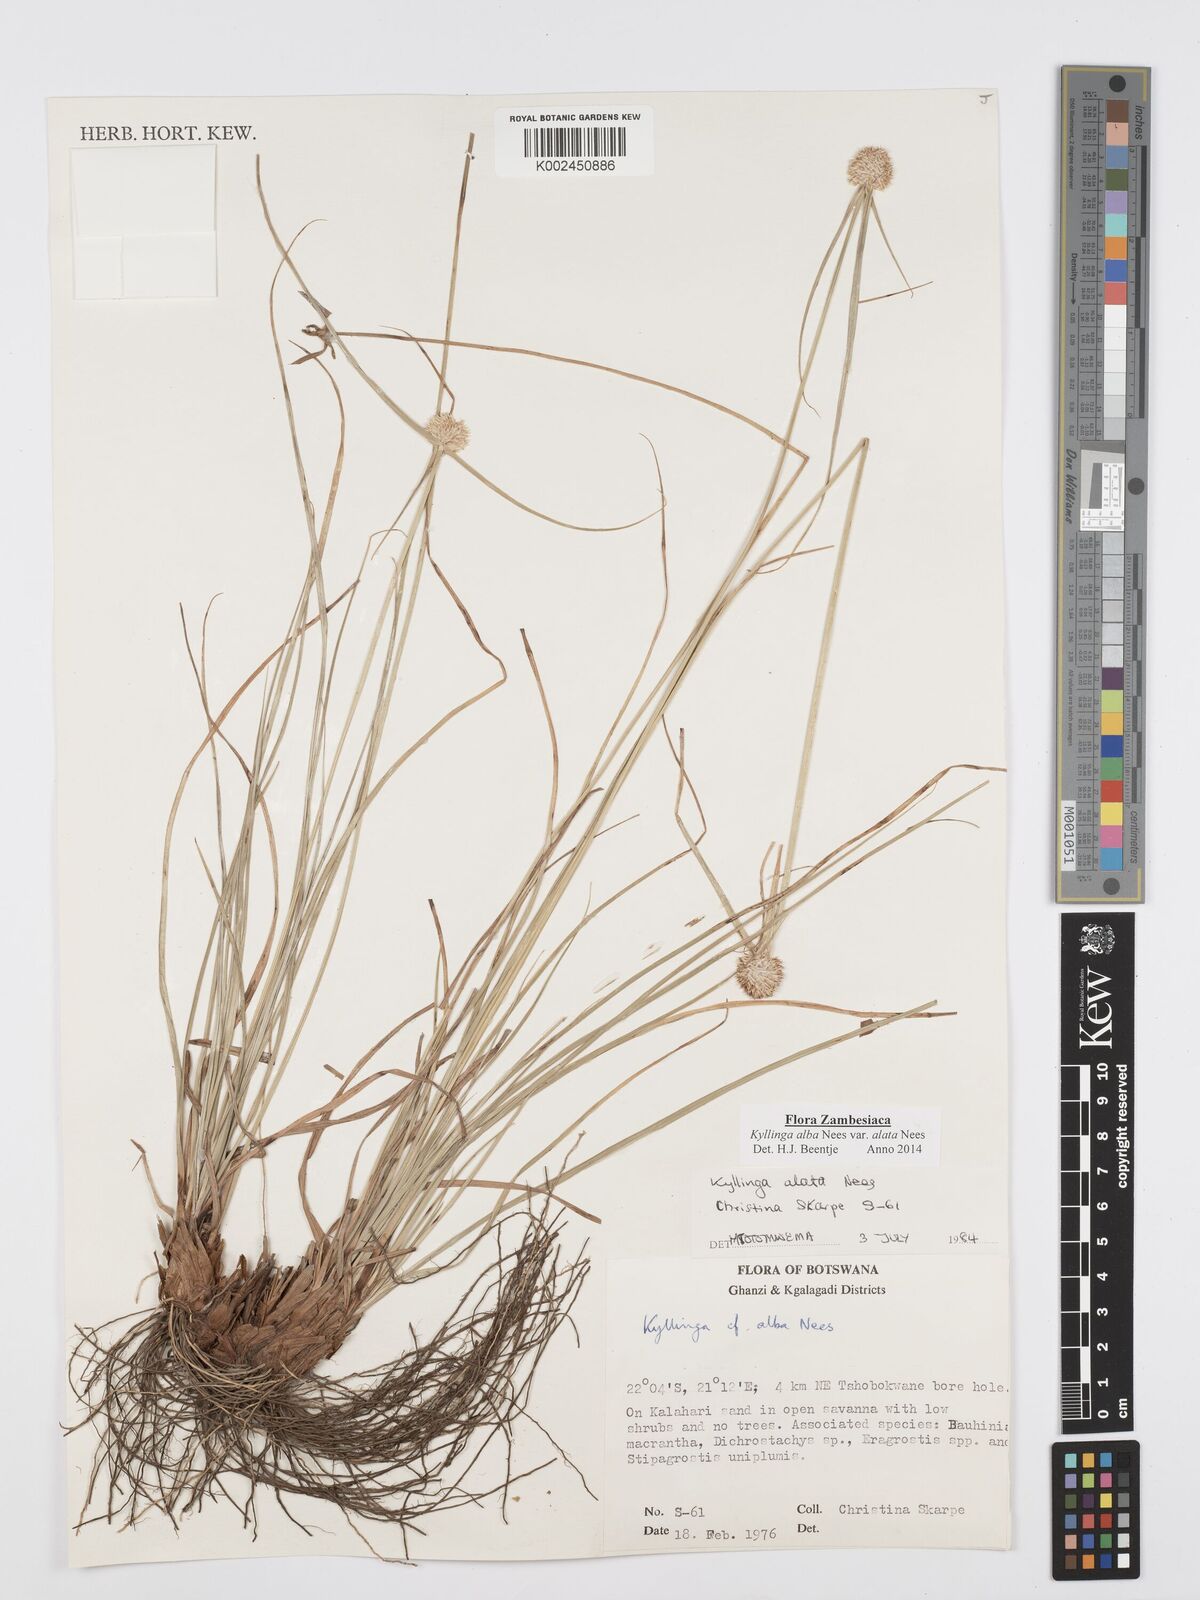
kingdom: Plantae
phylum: Tracheophyta
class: Liliopsida
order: Poales
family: Cyperaceae
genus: Cyperus
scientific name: Cyperus alatus
